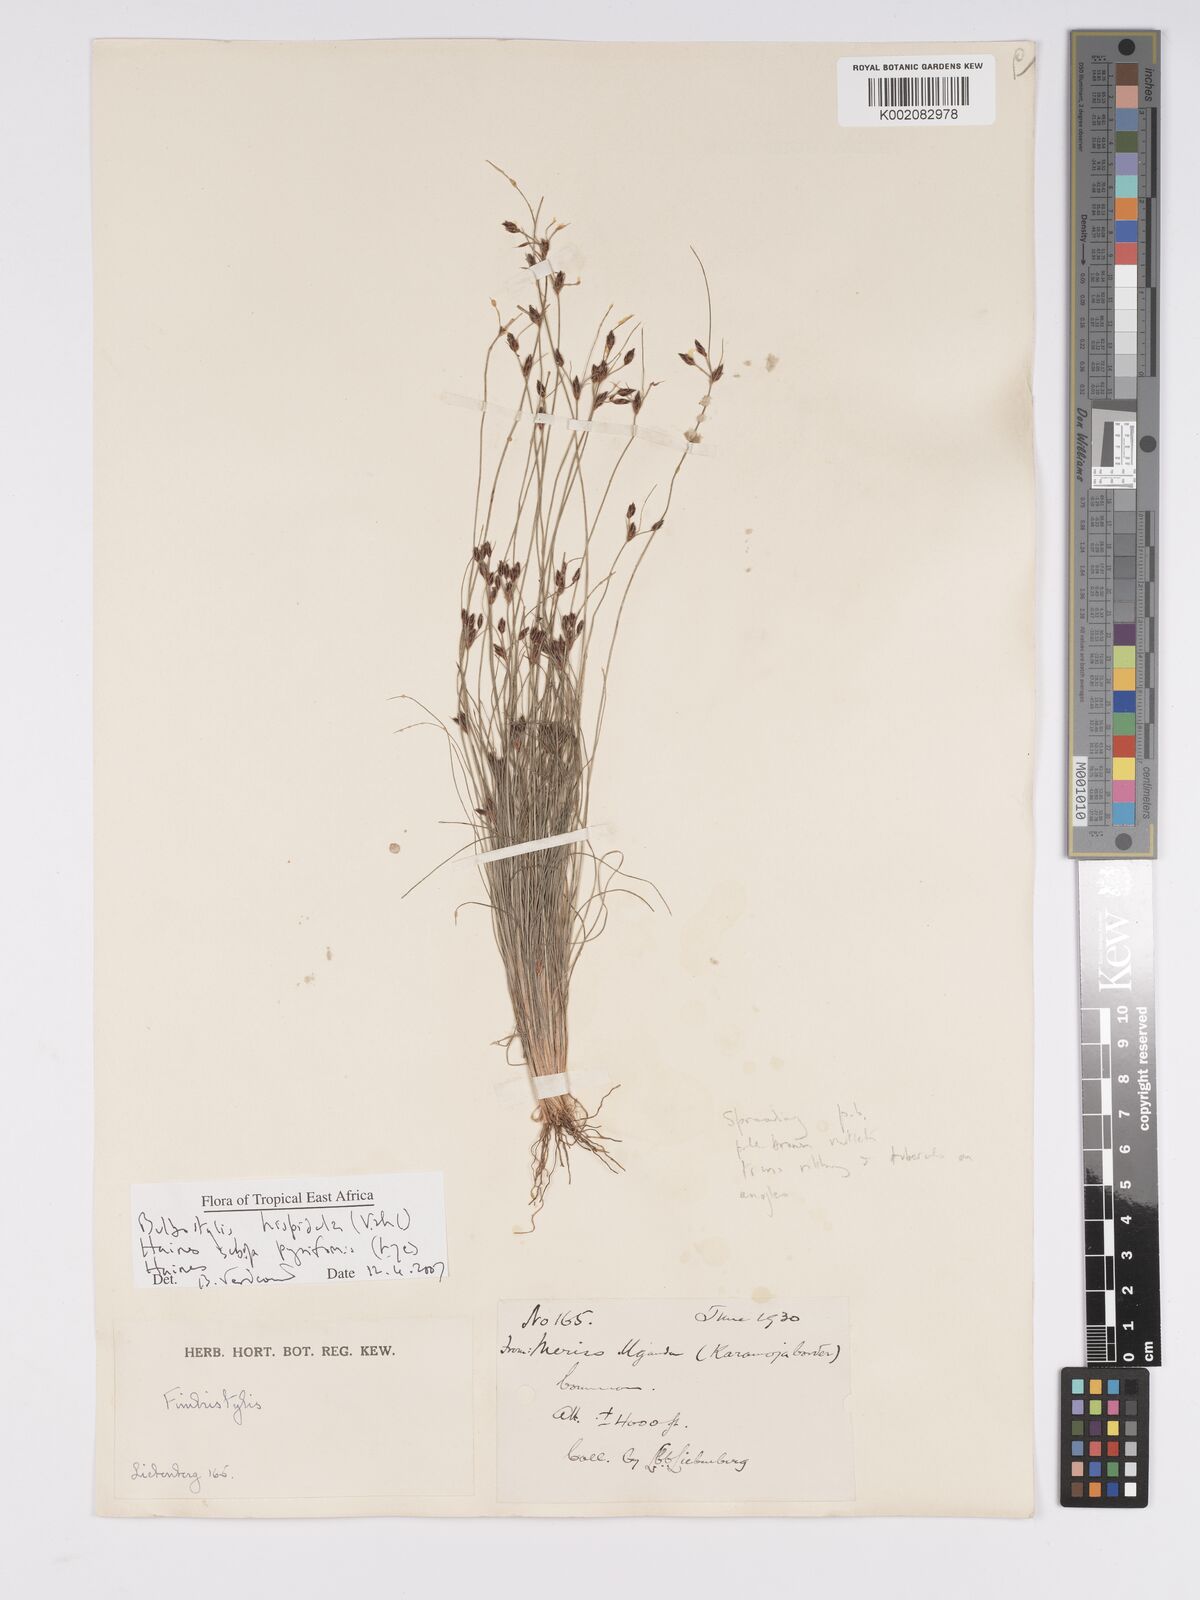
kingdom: Plantae
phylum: Tracheophyta
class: Liliopsida
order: Poales
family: Cyperaceae
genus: Bulbostylis
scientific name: Bulbostylis hispidula
